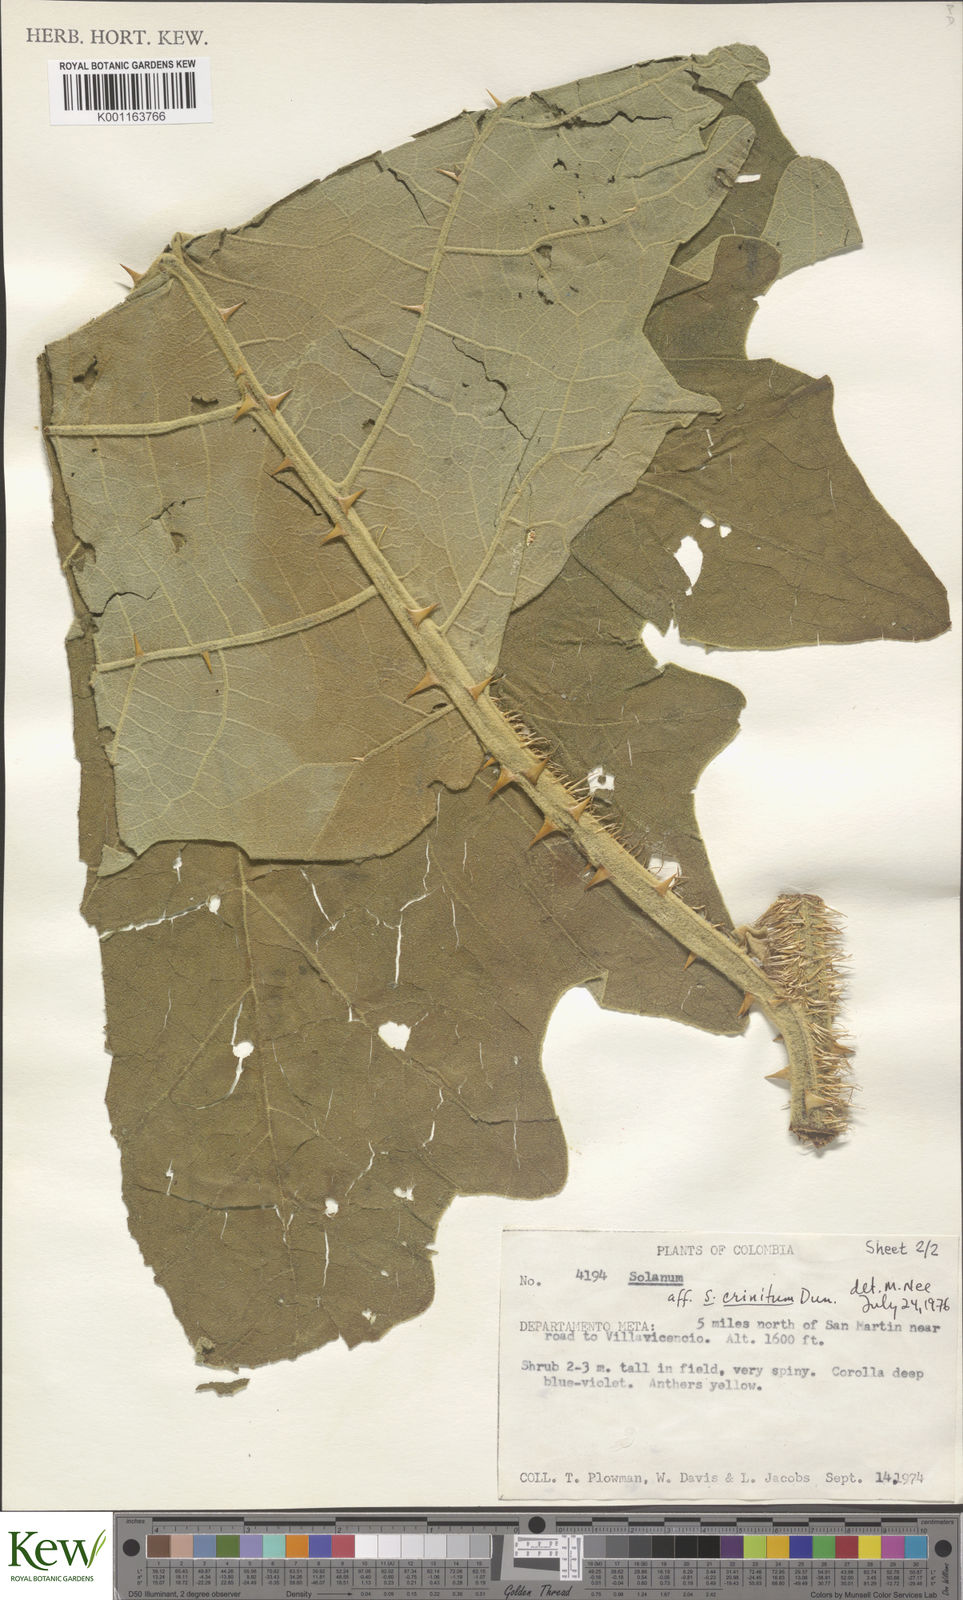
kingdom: Plantae
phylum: Tracheophyta
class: Magnoliopsida
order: Solanales
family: Solanaceae
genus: Solanum
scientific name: Solanum crinitum
